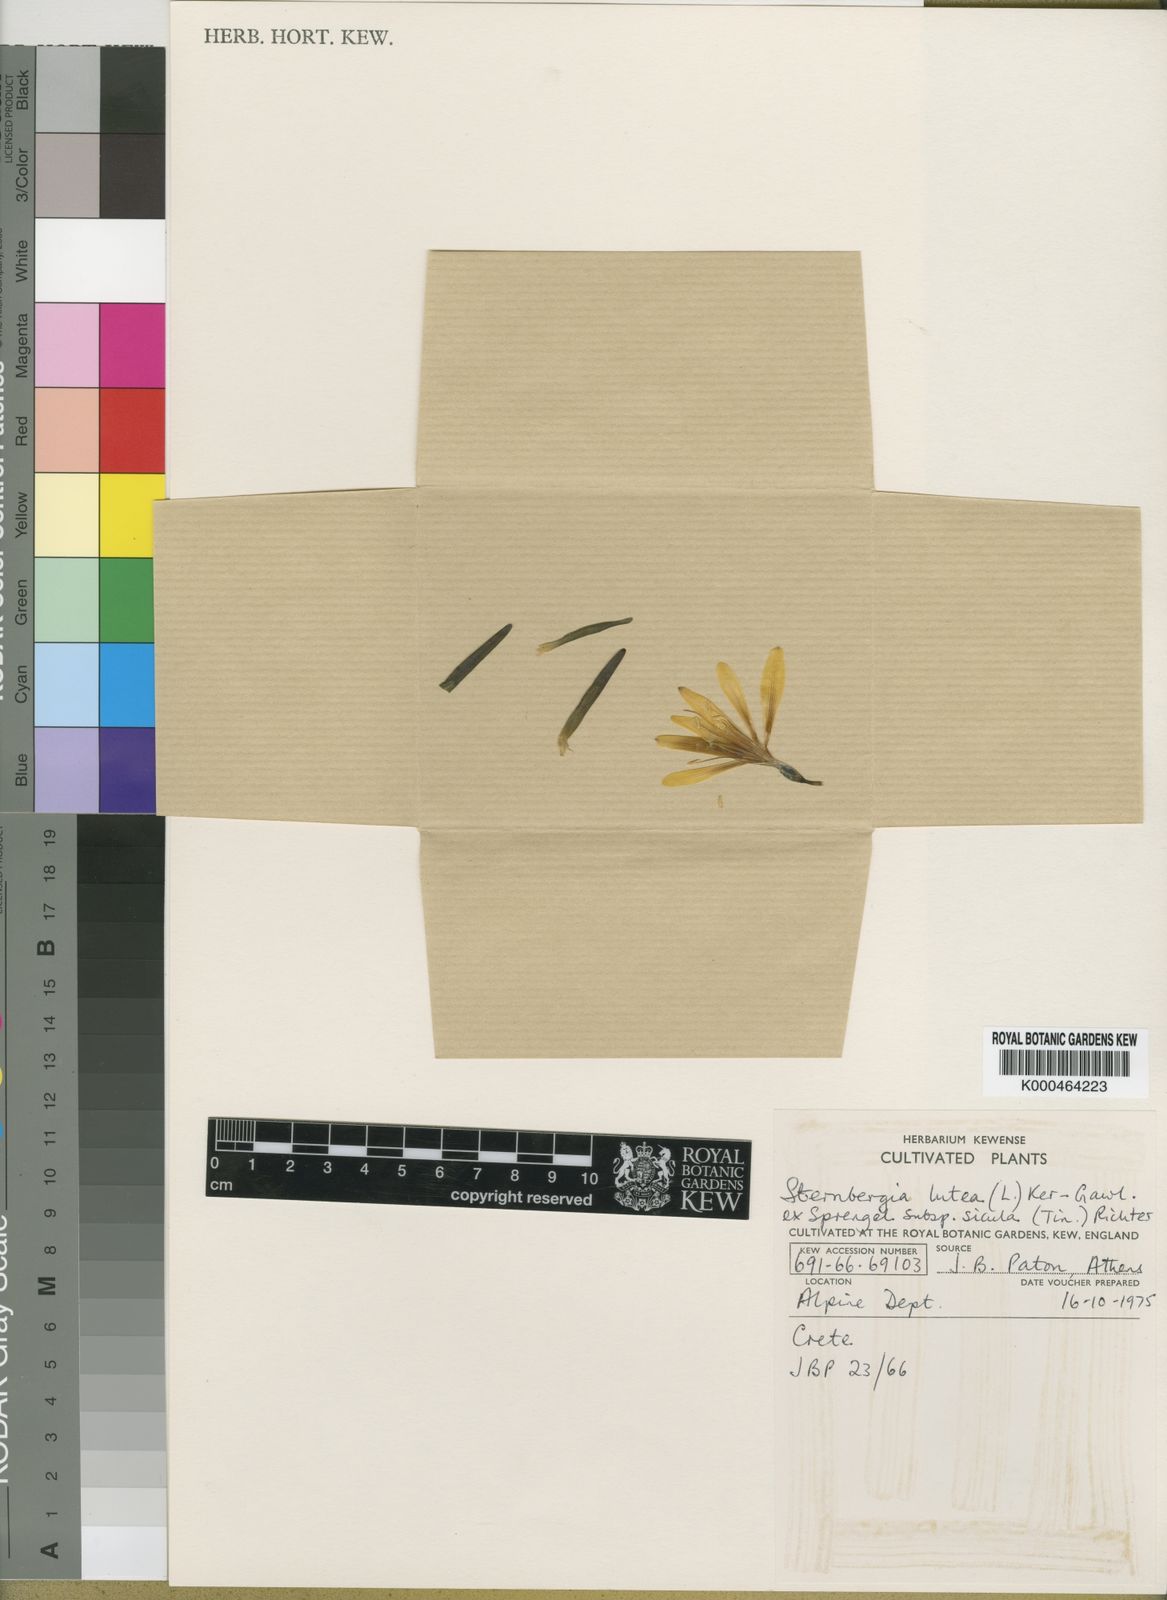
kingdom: Plantae
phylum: Tracheophyta
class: Liliopsida
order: Asparagales
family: Amaryllidaceae
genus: Sternbergia
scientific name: Sternbergia
